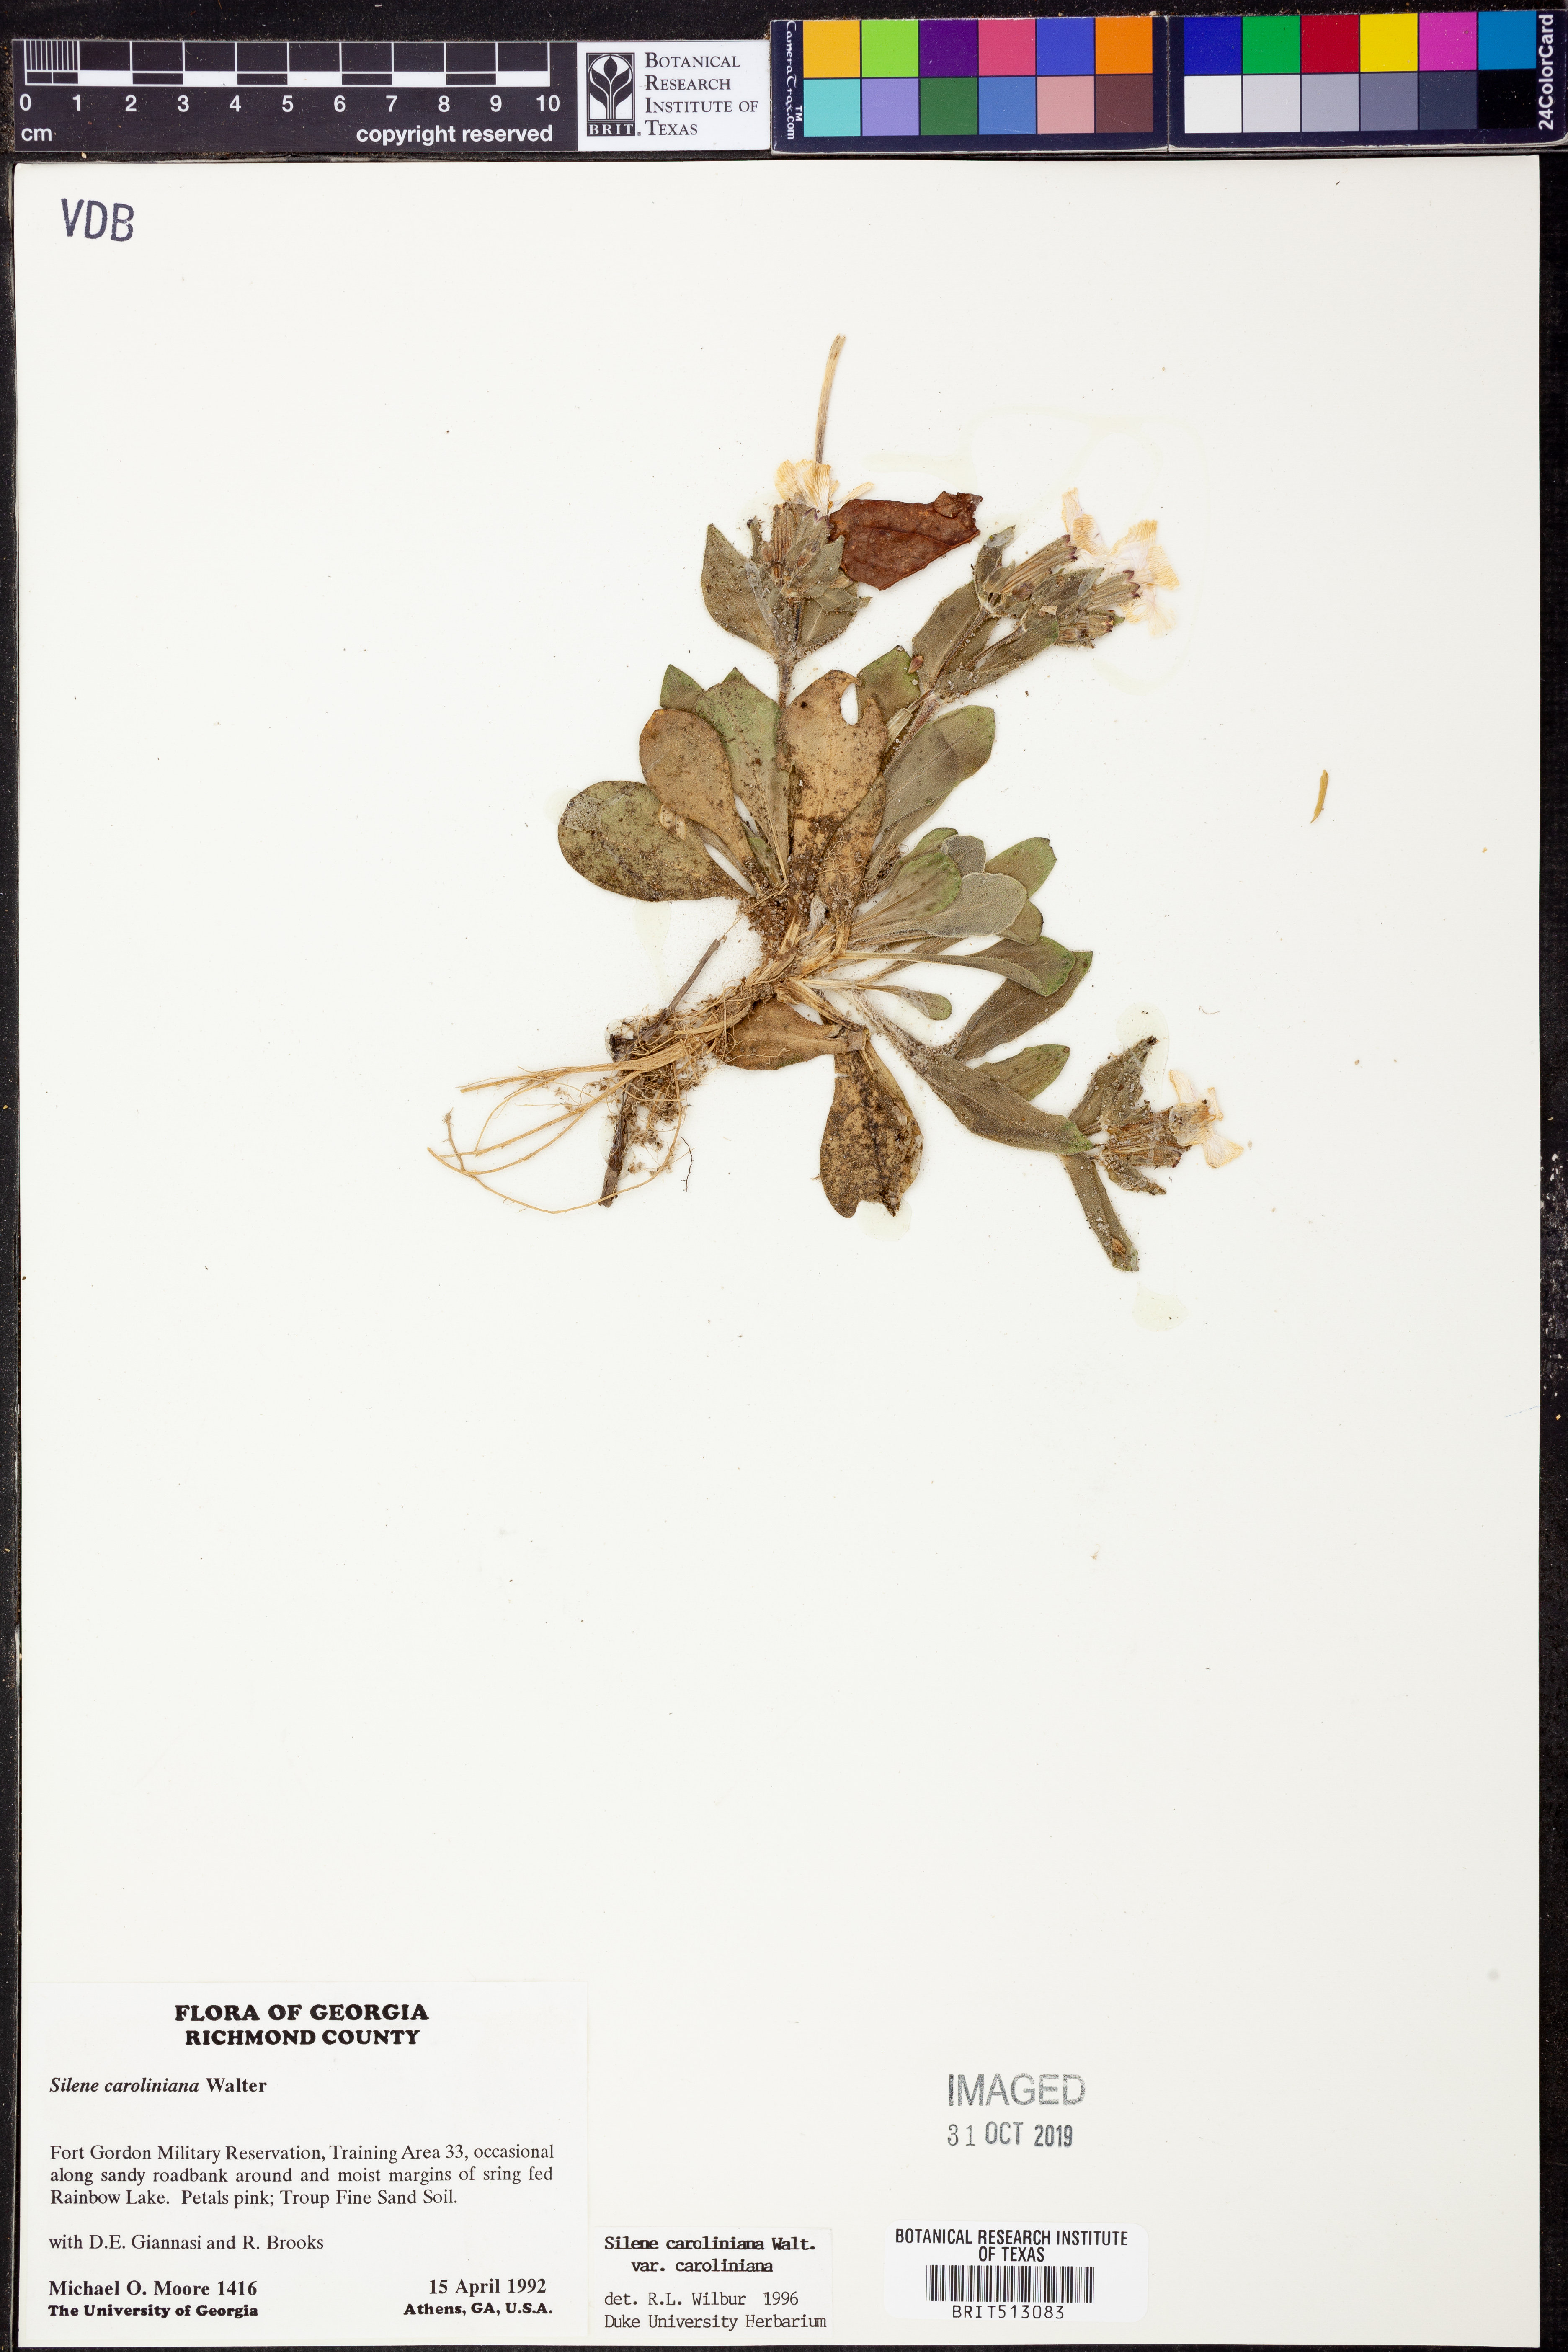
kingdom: Plantae
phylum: Tracheophyta
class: Magnoliopsida
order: Caryophyllales
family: Caryophyllaceae
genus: Silene
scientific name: Silene caroliniana
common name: Sticky catchfly
